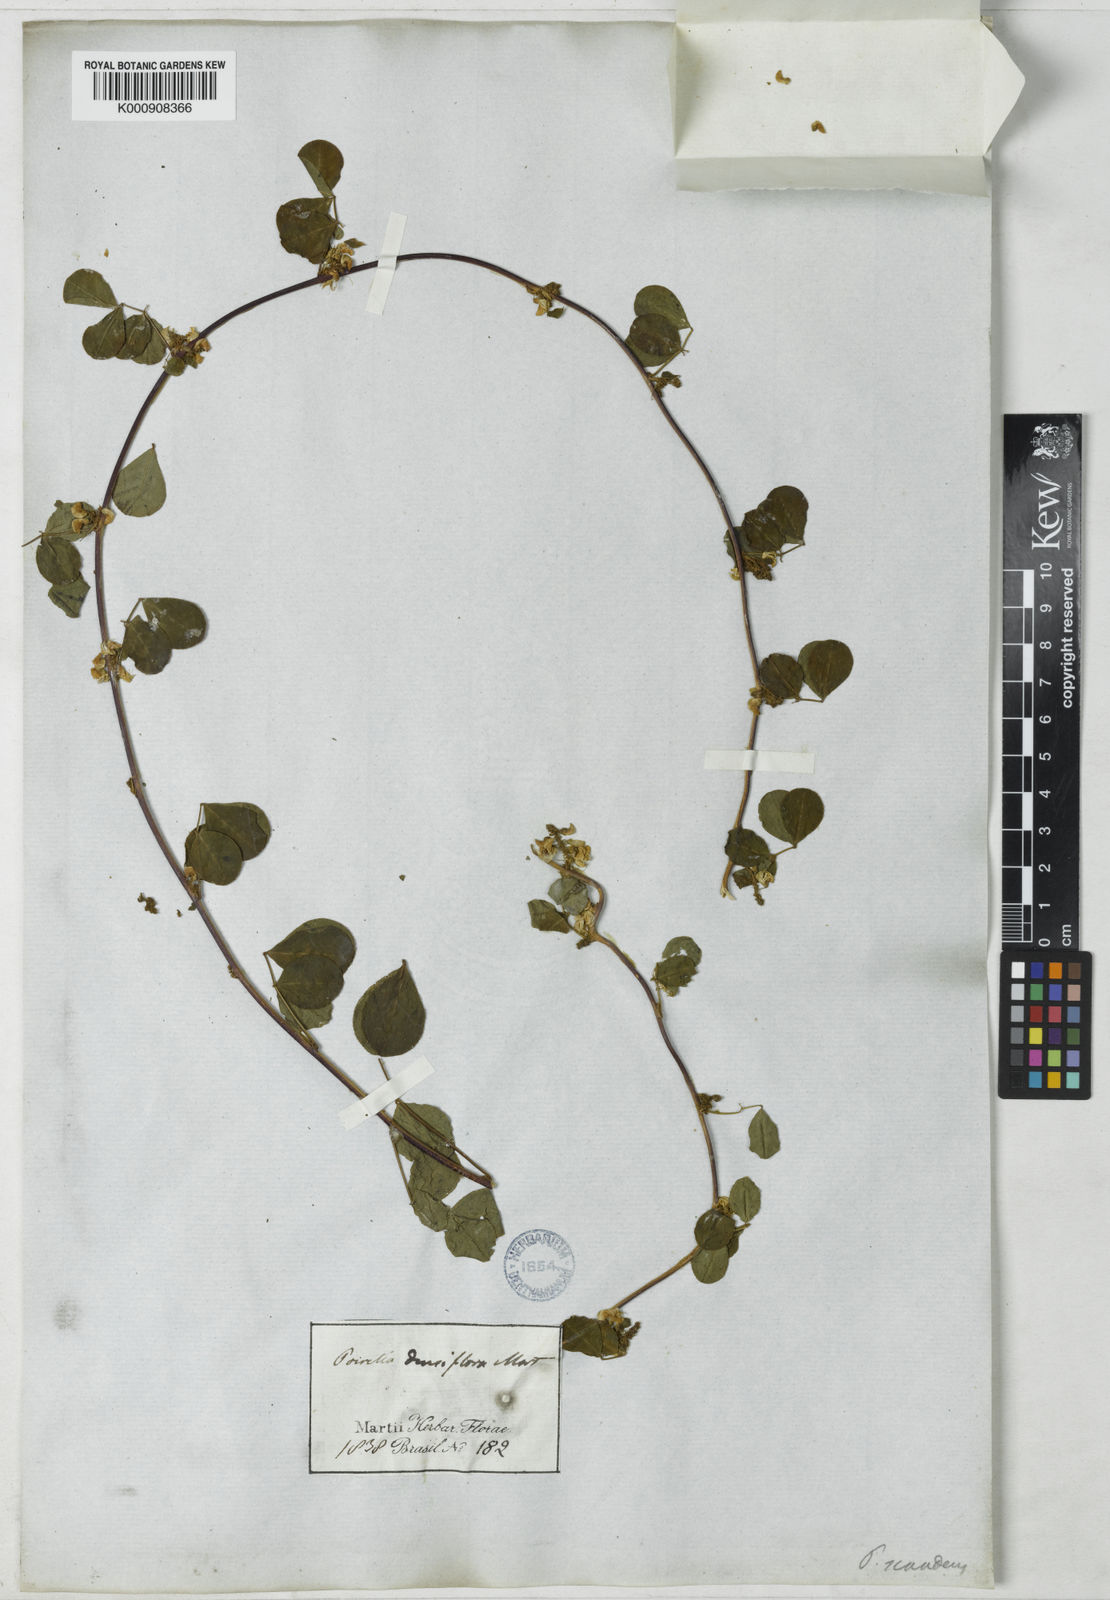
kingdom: Plantae
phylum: Tracheophyta
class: Magnoliopsida
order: Fabales
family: Fabaceae
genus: Poiretia
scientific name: Poiretia punctata
